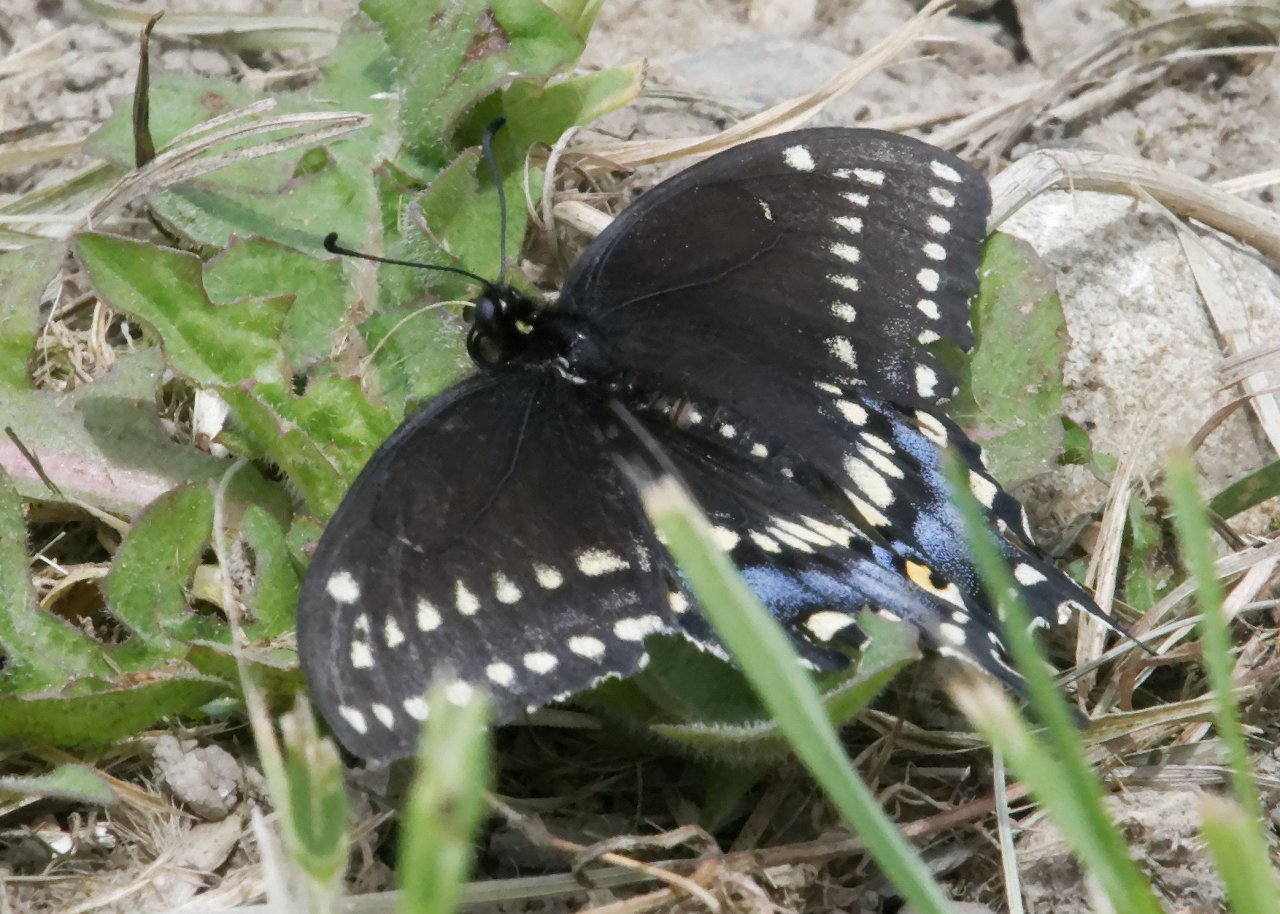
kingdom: Animalia
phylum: Arthropoda
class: Insecta
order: Lepidoptera
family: Papilionidae
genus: Papilio
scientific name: Papilio polyxenes
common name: Black Swallowtail
